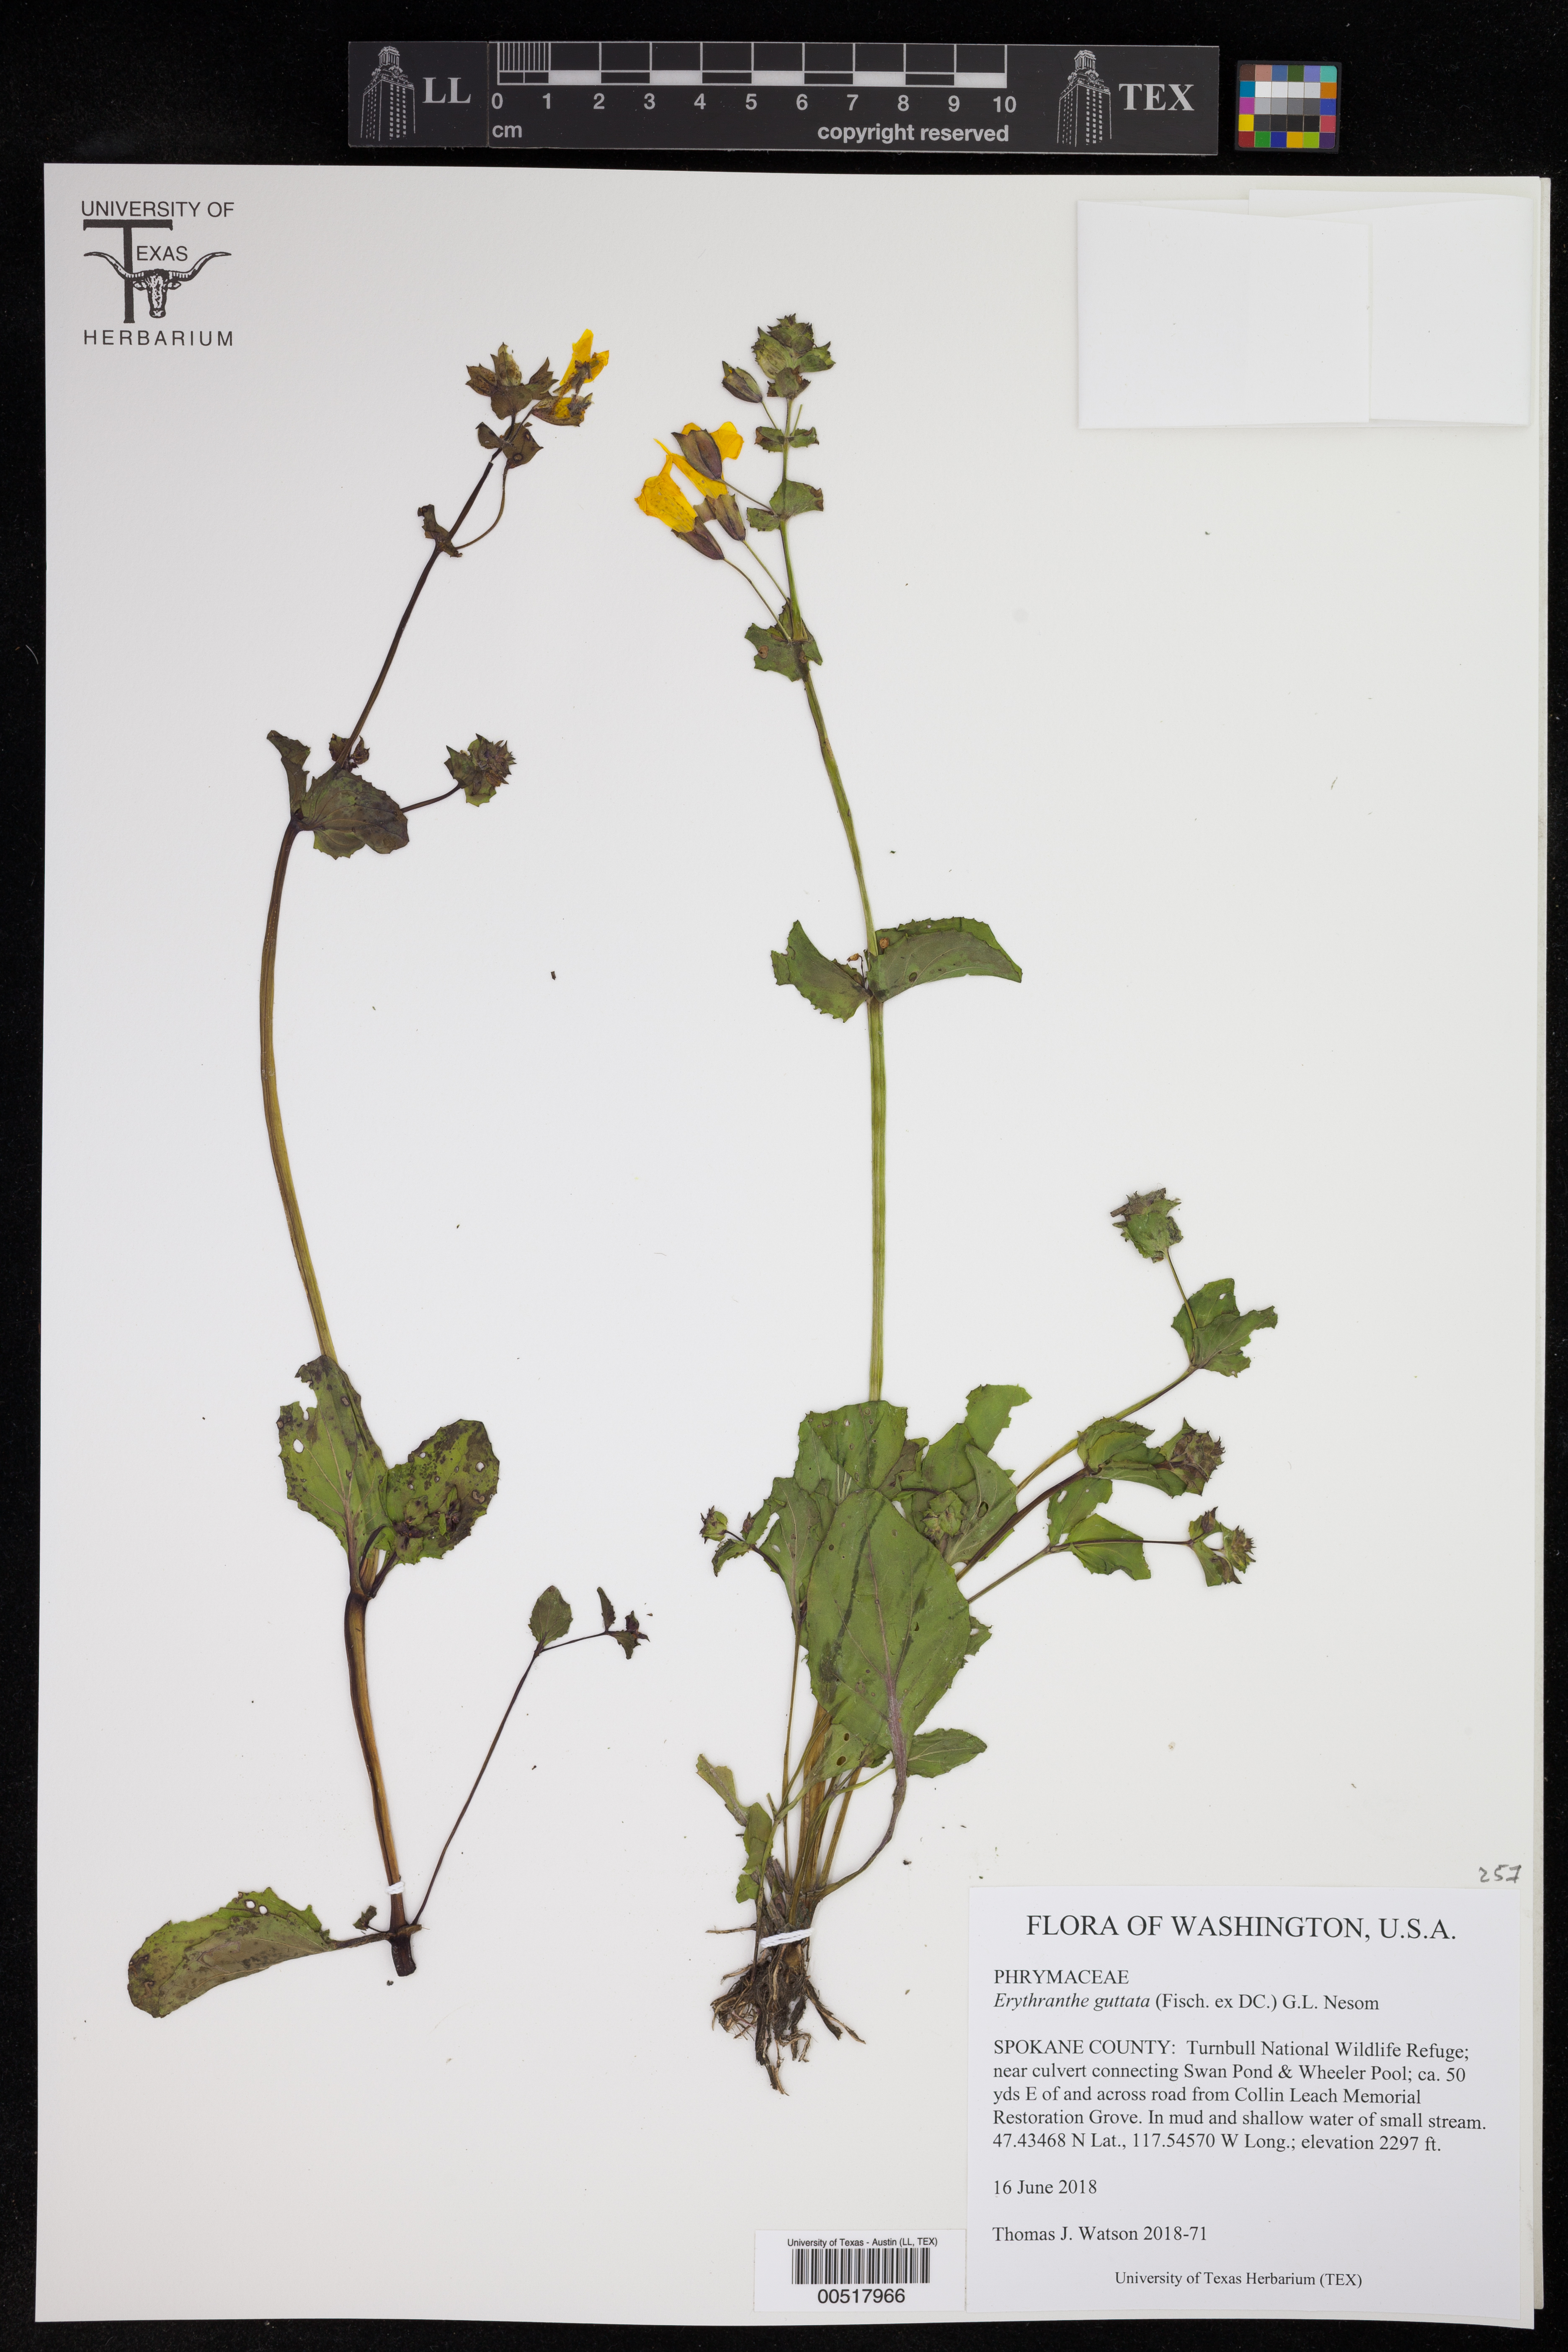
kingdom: Plantae
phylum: Tracheophyta
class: Magnoliopsida
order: Lamiales
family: Phrymaceae
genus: Erythranthe
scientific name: Erythranthe guttata
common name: Monkeyflower
